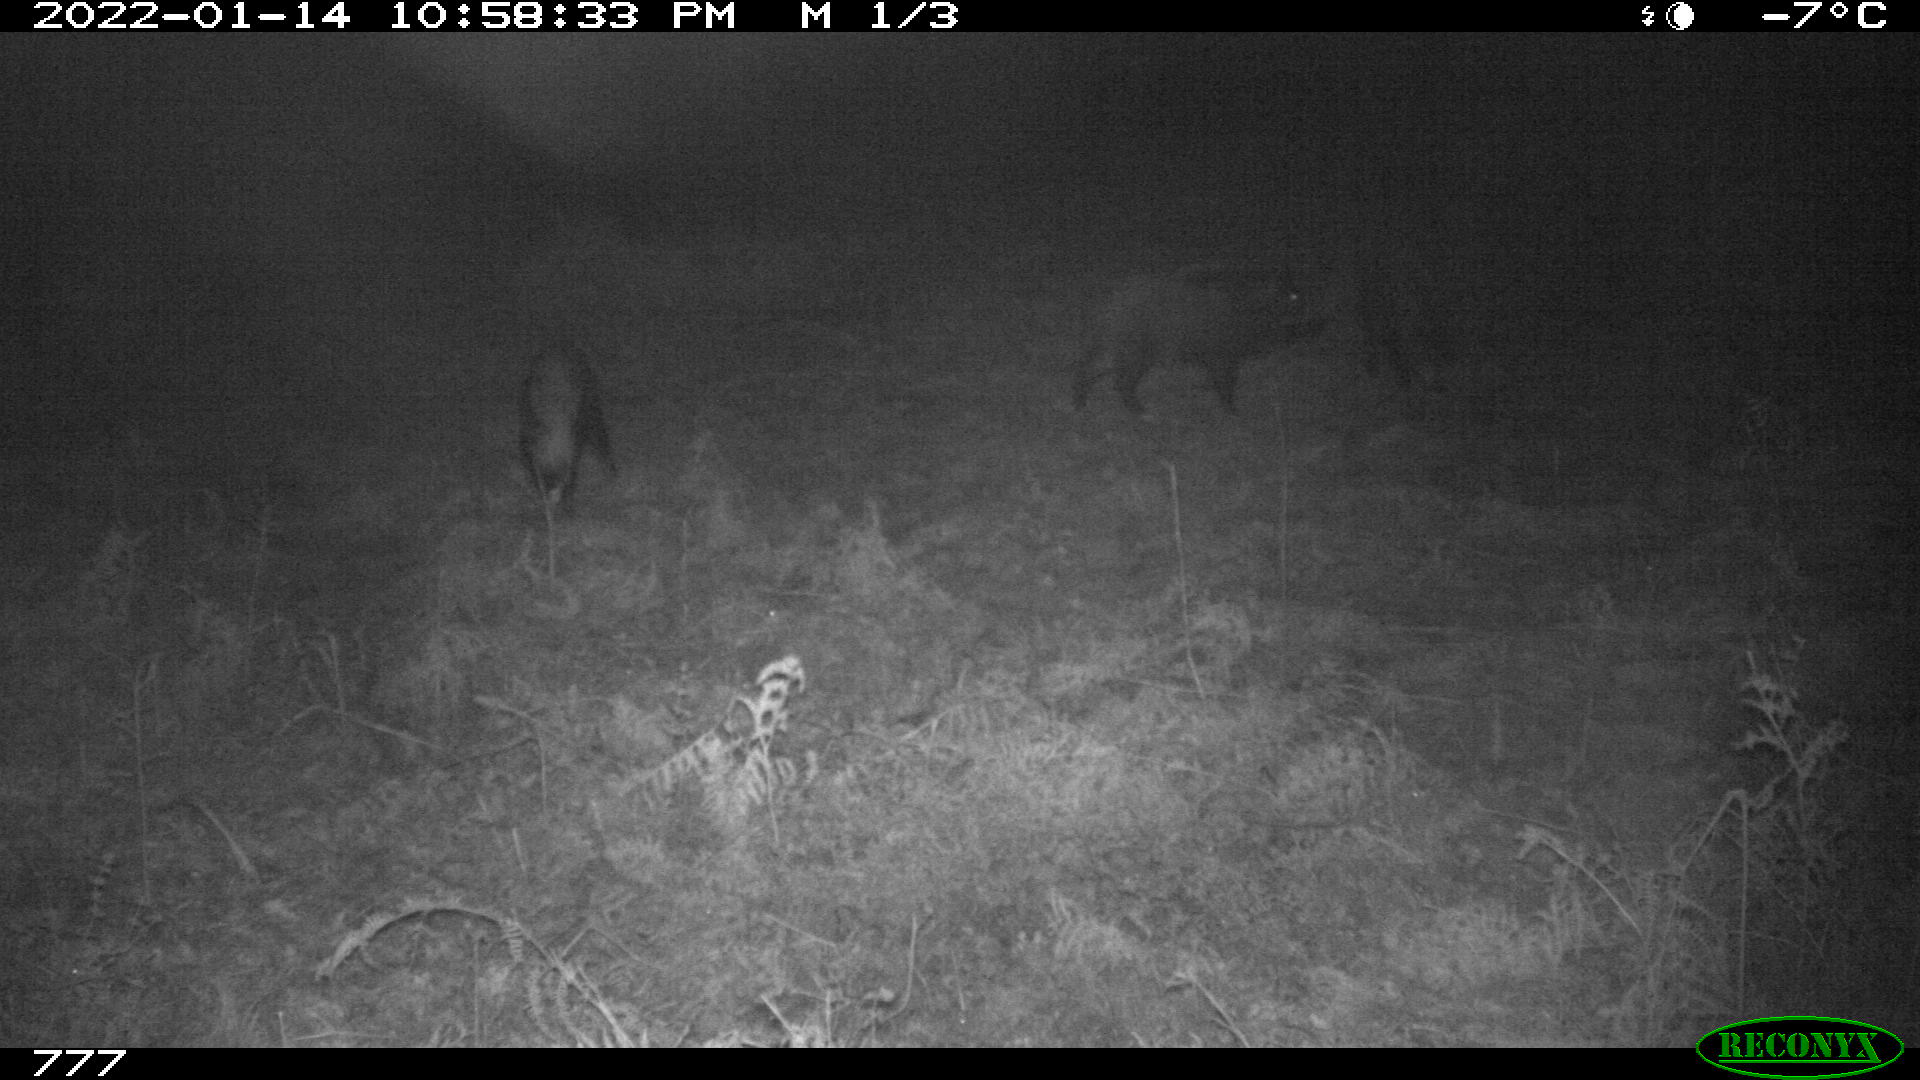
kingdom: Animalia
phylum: Chordata
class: Mammalia
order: Artiodactyla
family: Suidae
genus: Sus
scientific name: Sus scrofa
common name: Wild boar
